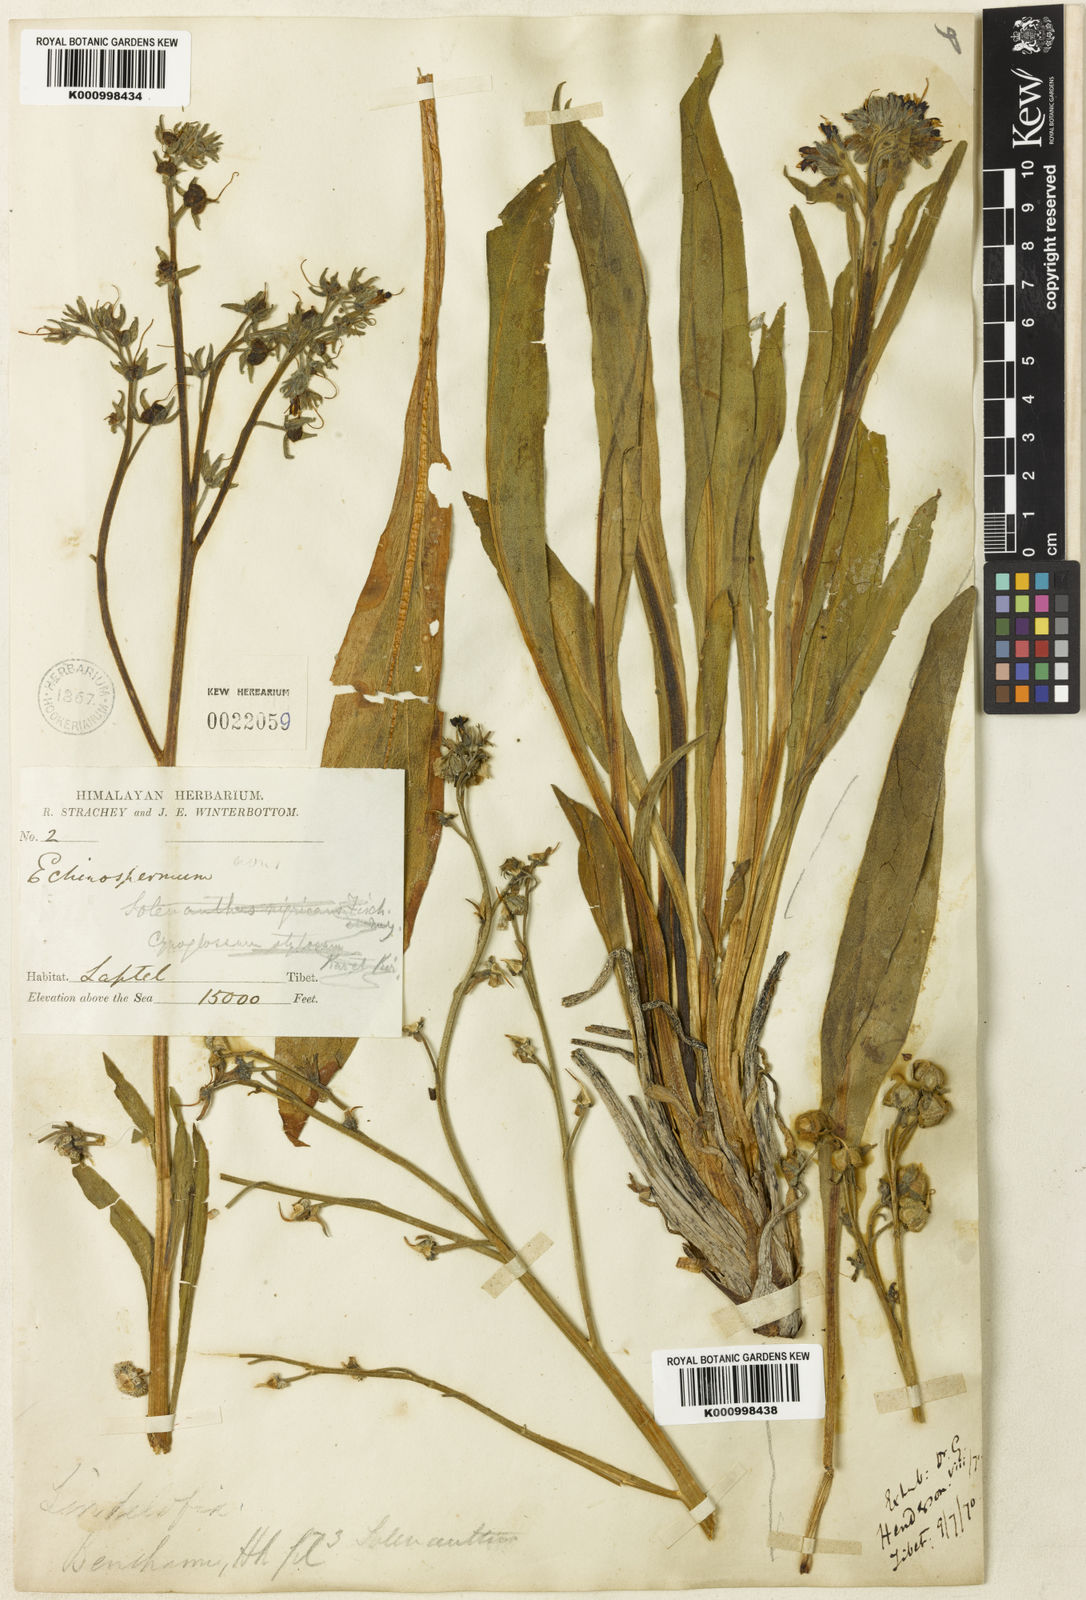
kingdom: Plantae
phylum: Tracheophyta
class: Magnoliopsida
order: Boraginales
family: Boraginaceae
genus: Lindelofia
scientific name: Lindelofia stylosa
